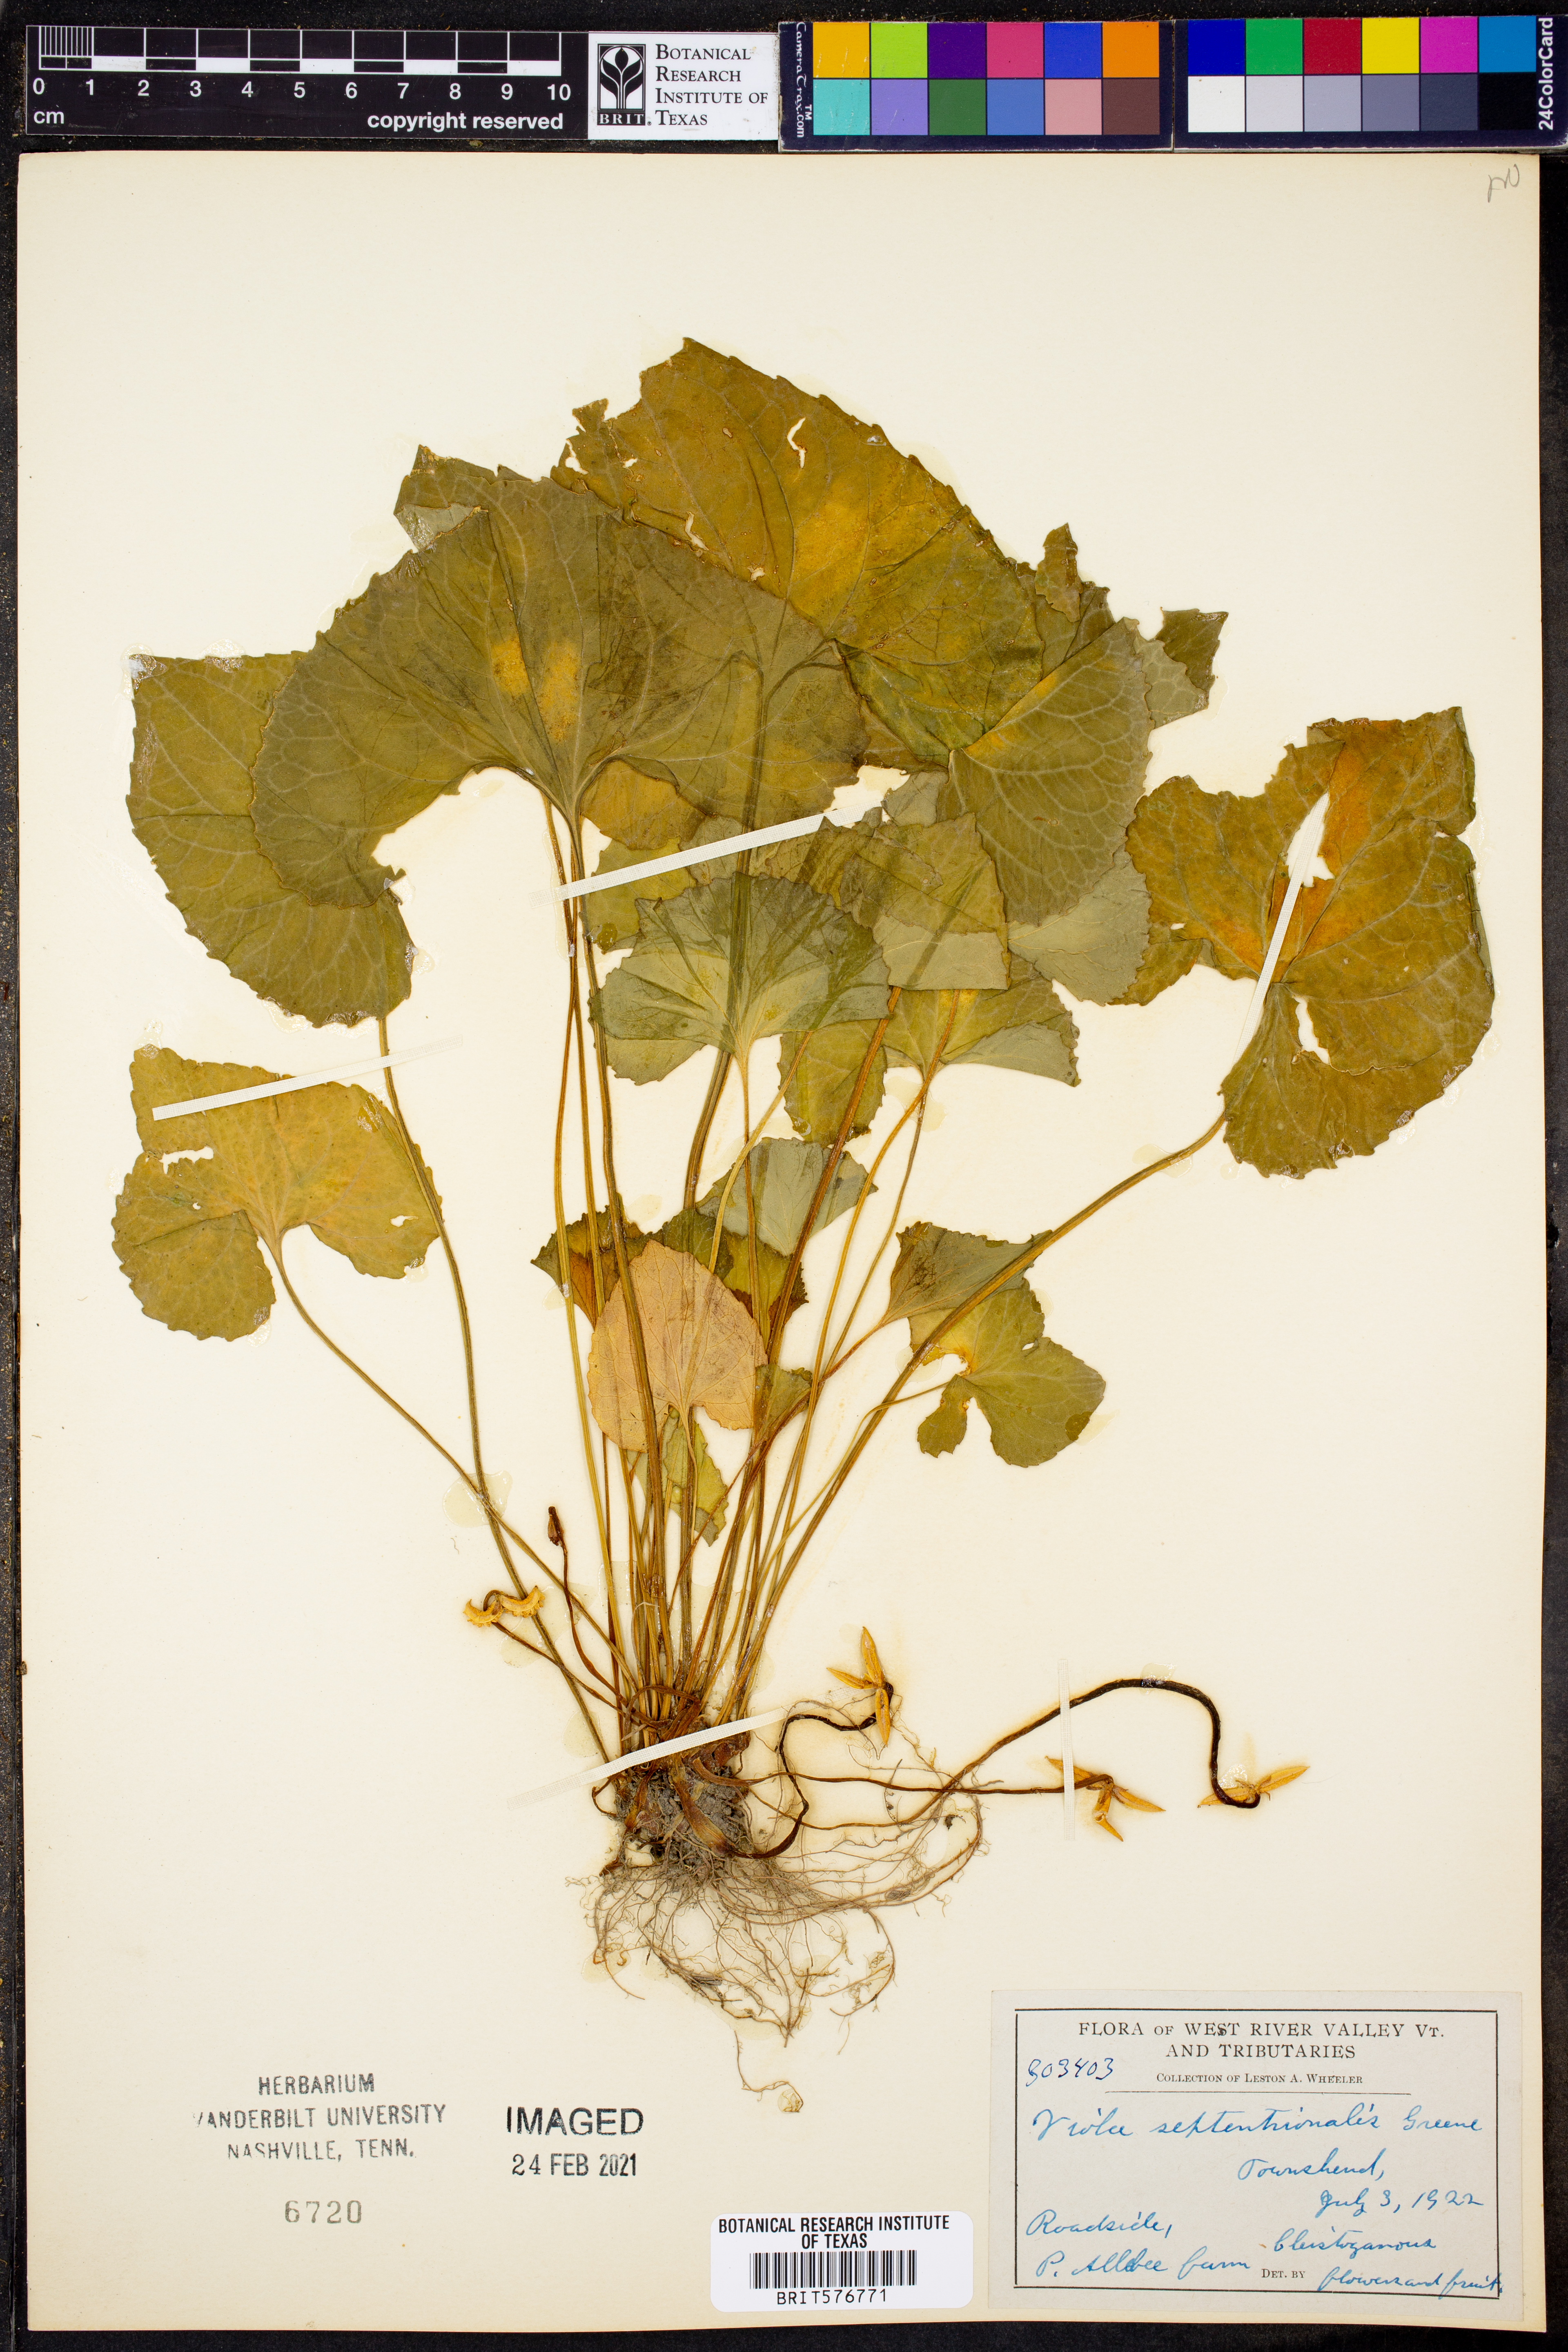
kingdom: Plantae
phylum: Tracheophyta
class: Magnoliopsida
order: Malpighiales
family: Violaceae
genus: Viola
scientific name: Viola septentrionalis
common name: Northern woodland violet
